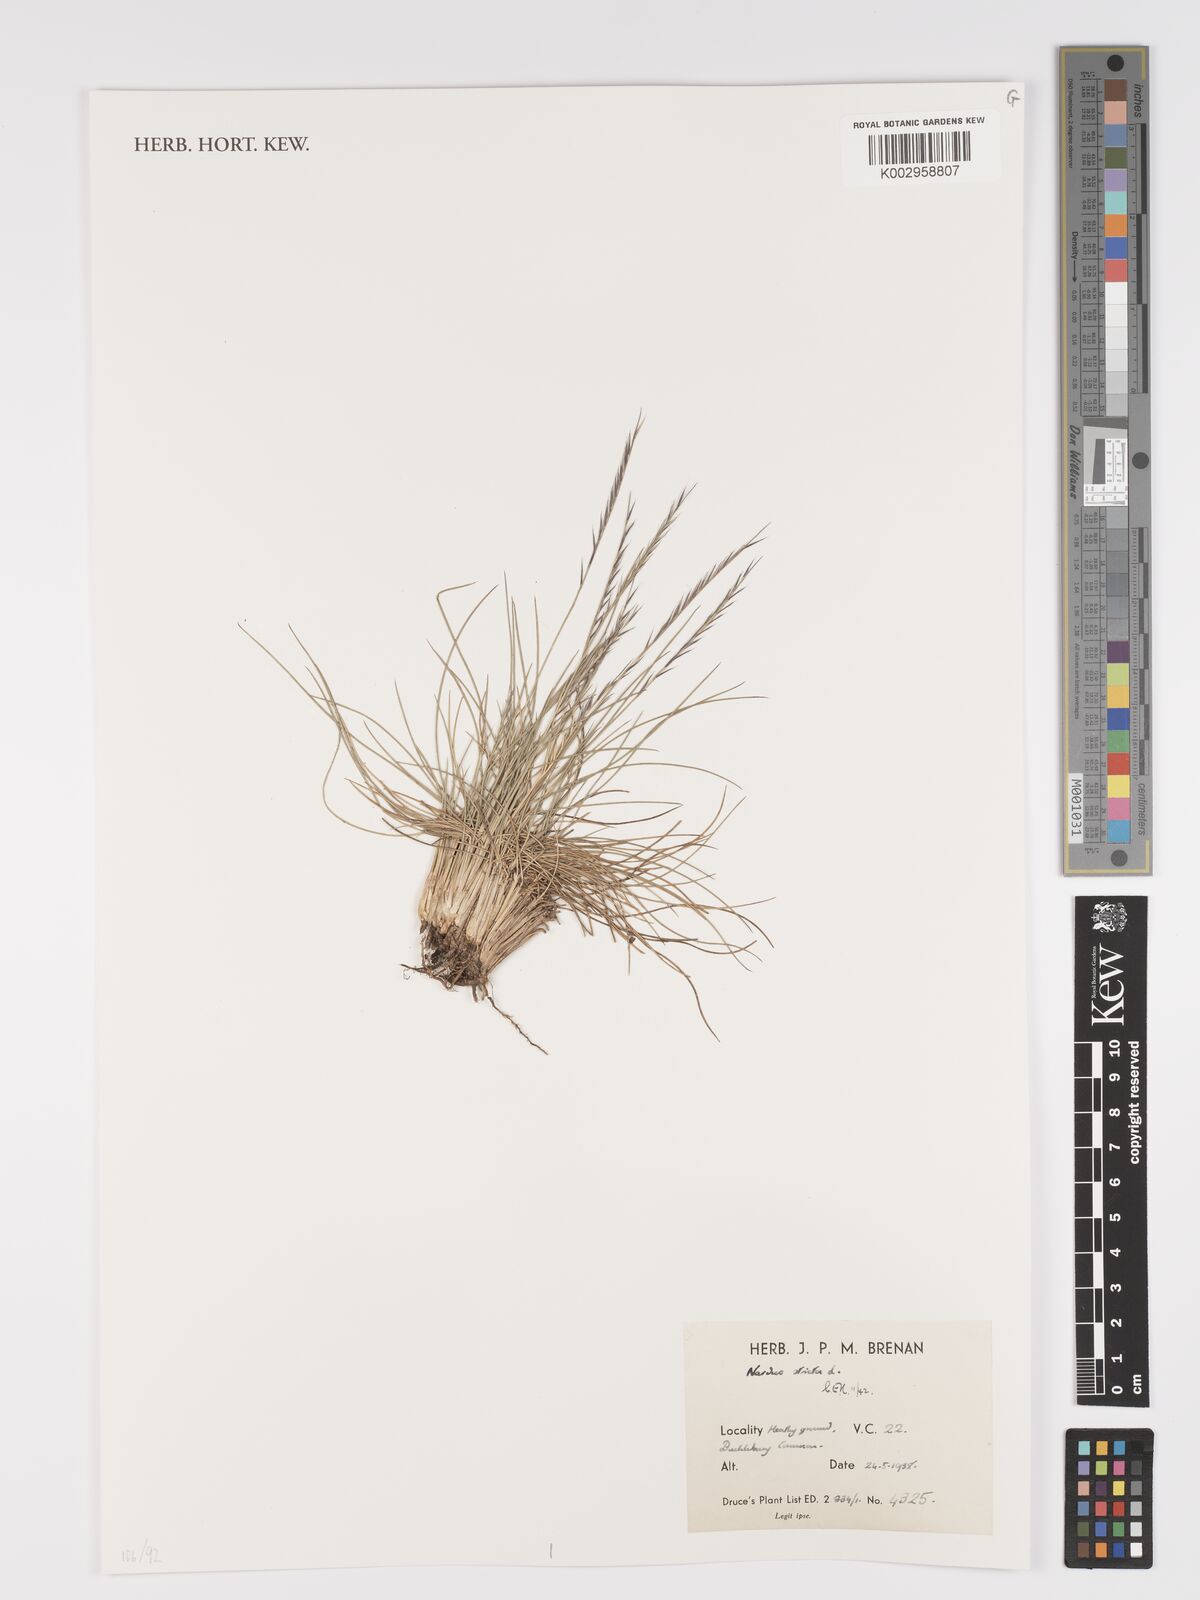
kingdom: Plantae
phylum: Tracheophyta
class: Liliopsida
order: Poales
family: Poaceae
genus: Nardus
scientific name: Nardus stricta
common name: Mat-grass
